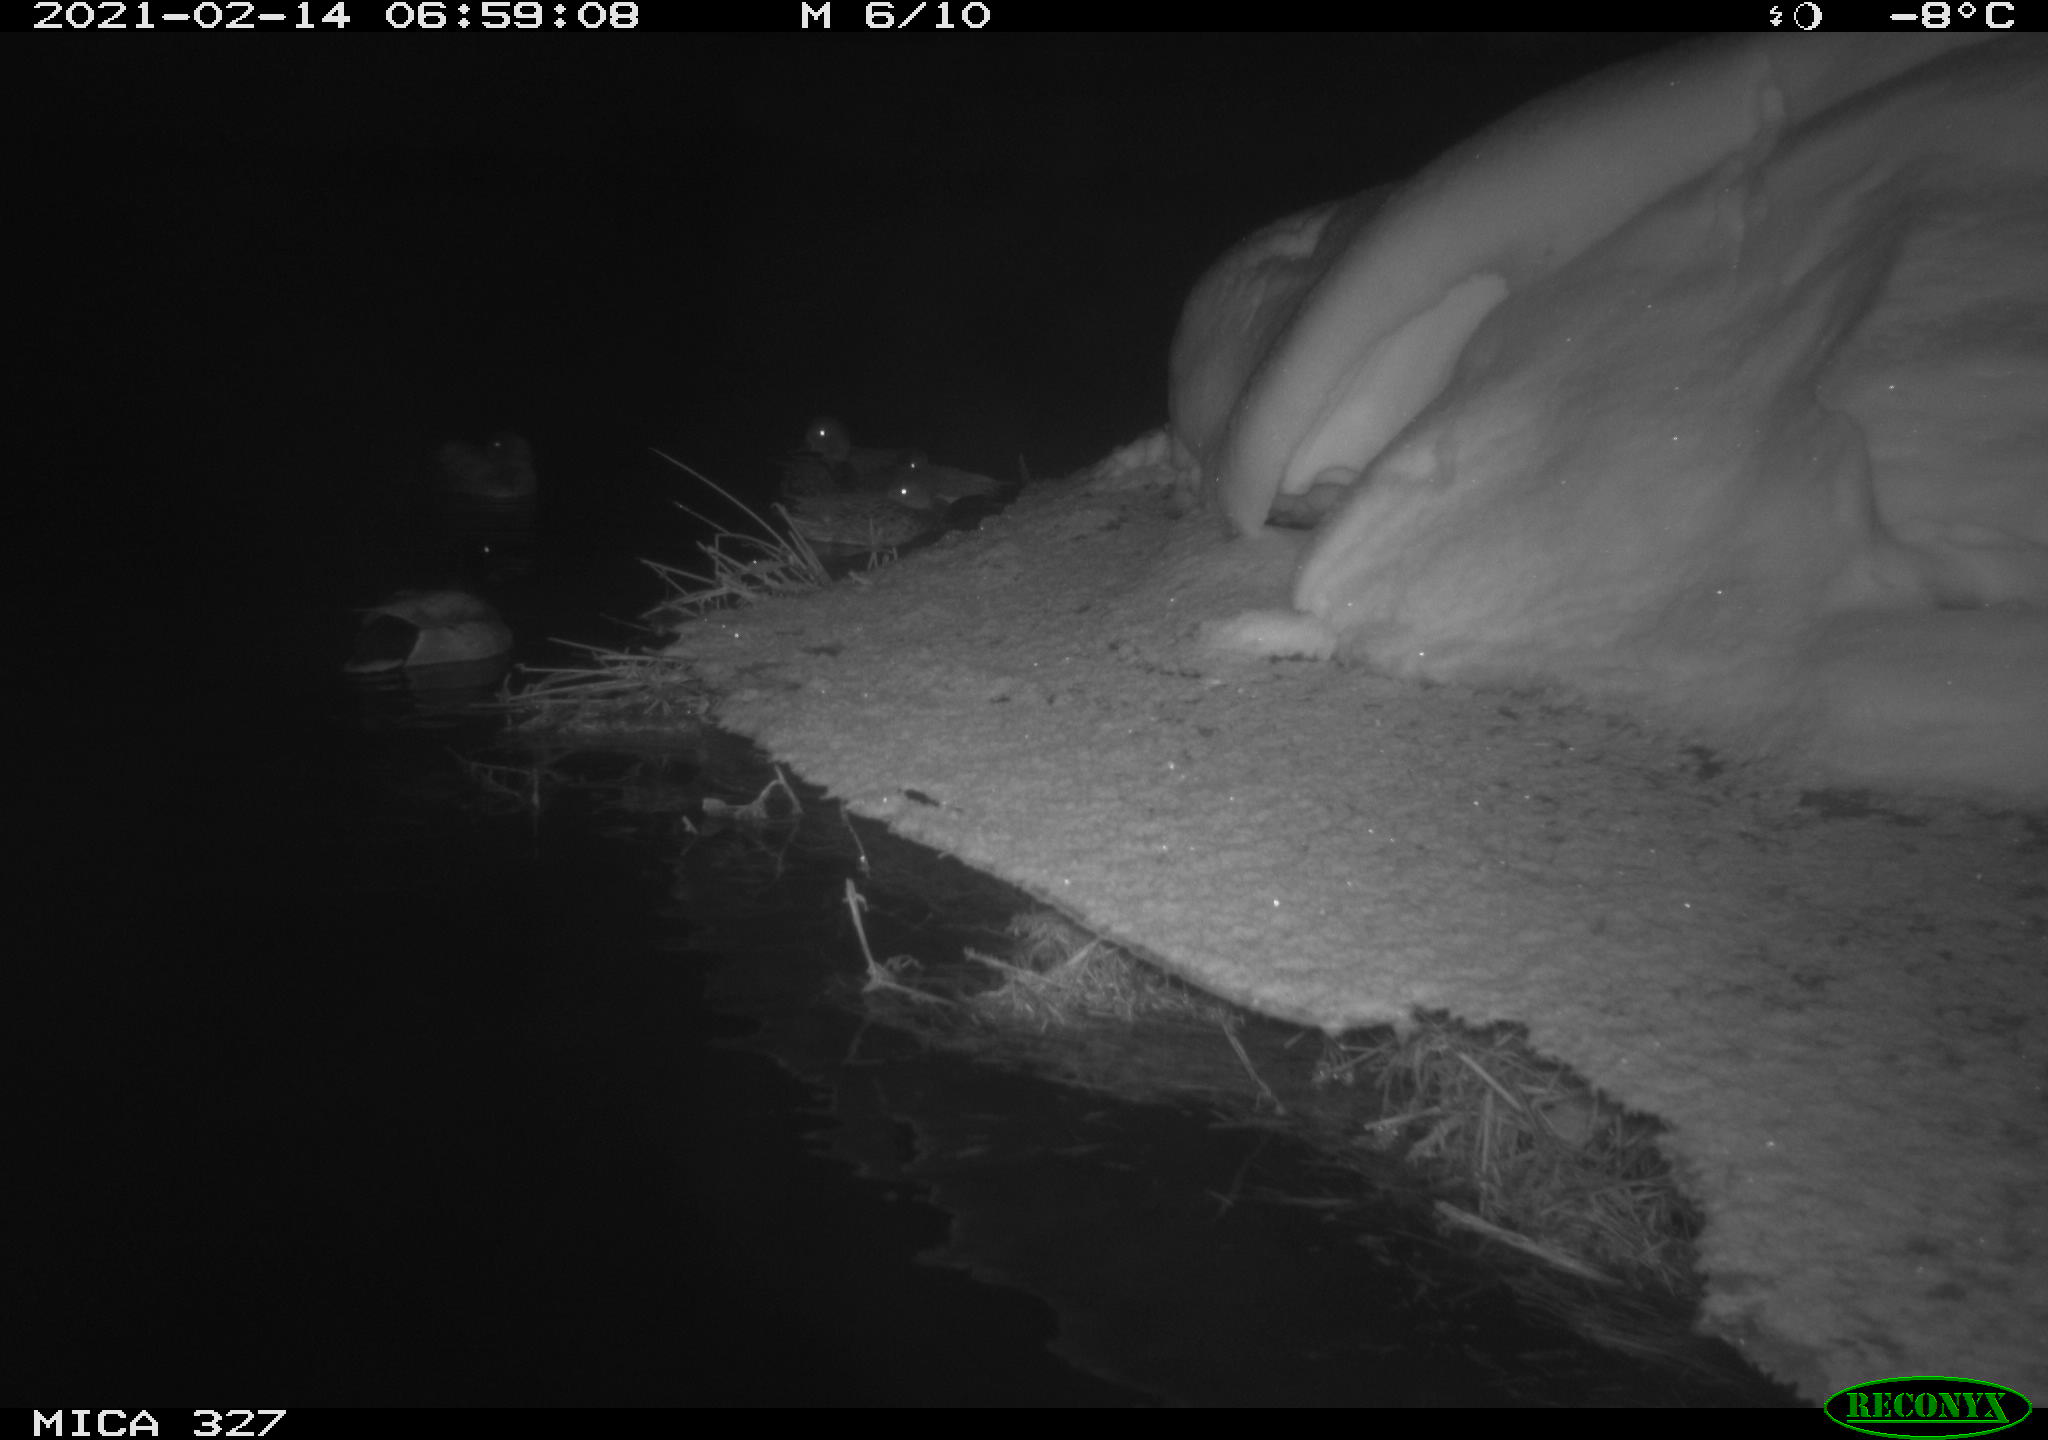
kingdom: Animalia
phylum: Chordata
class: Aves
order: Anseriformes
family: Anatidae
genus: Anas
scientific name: Anas
